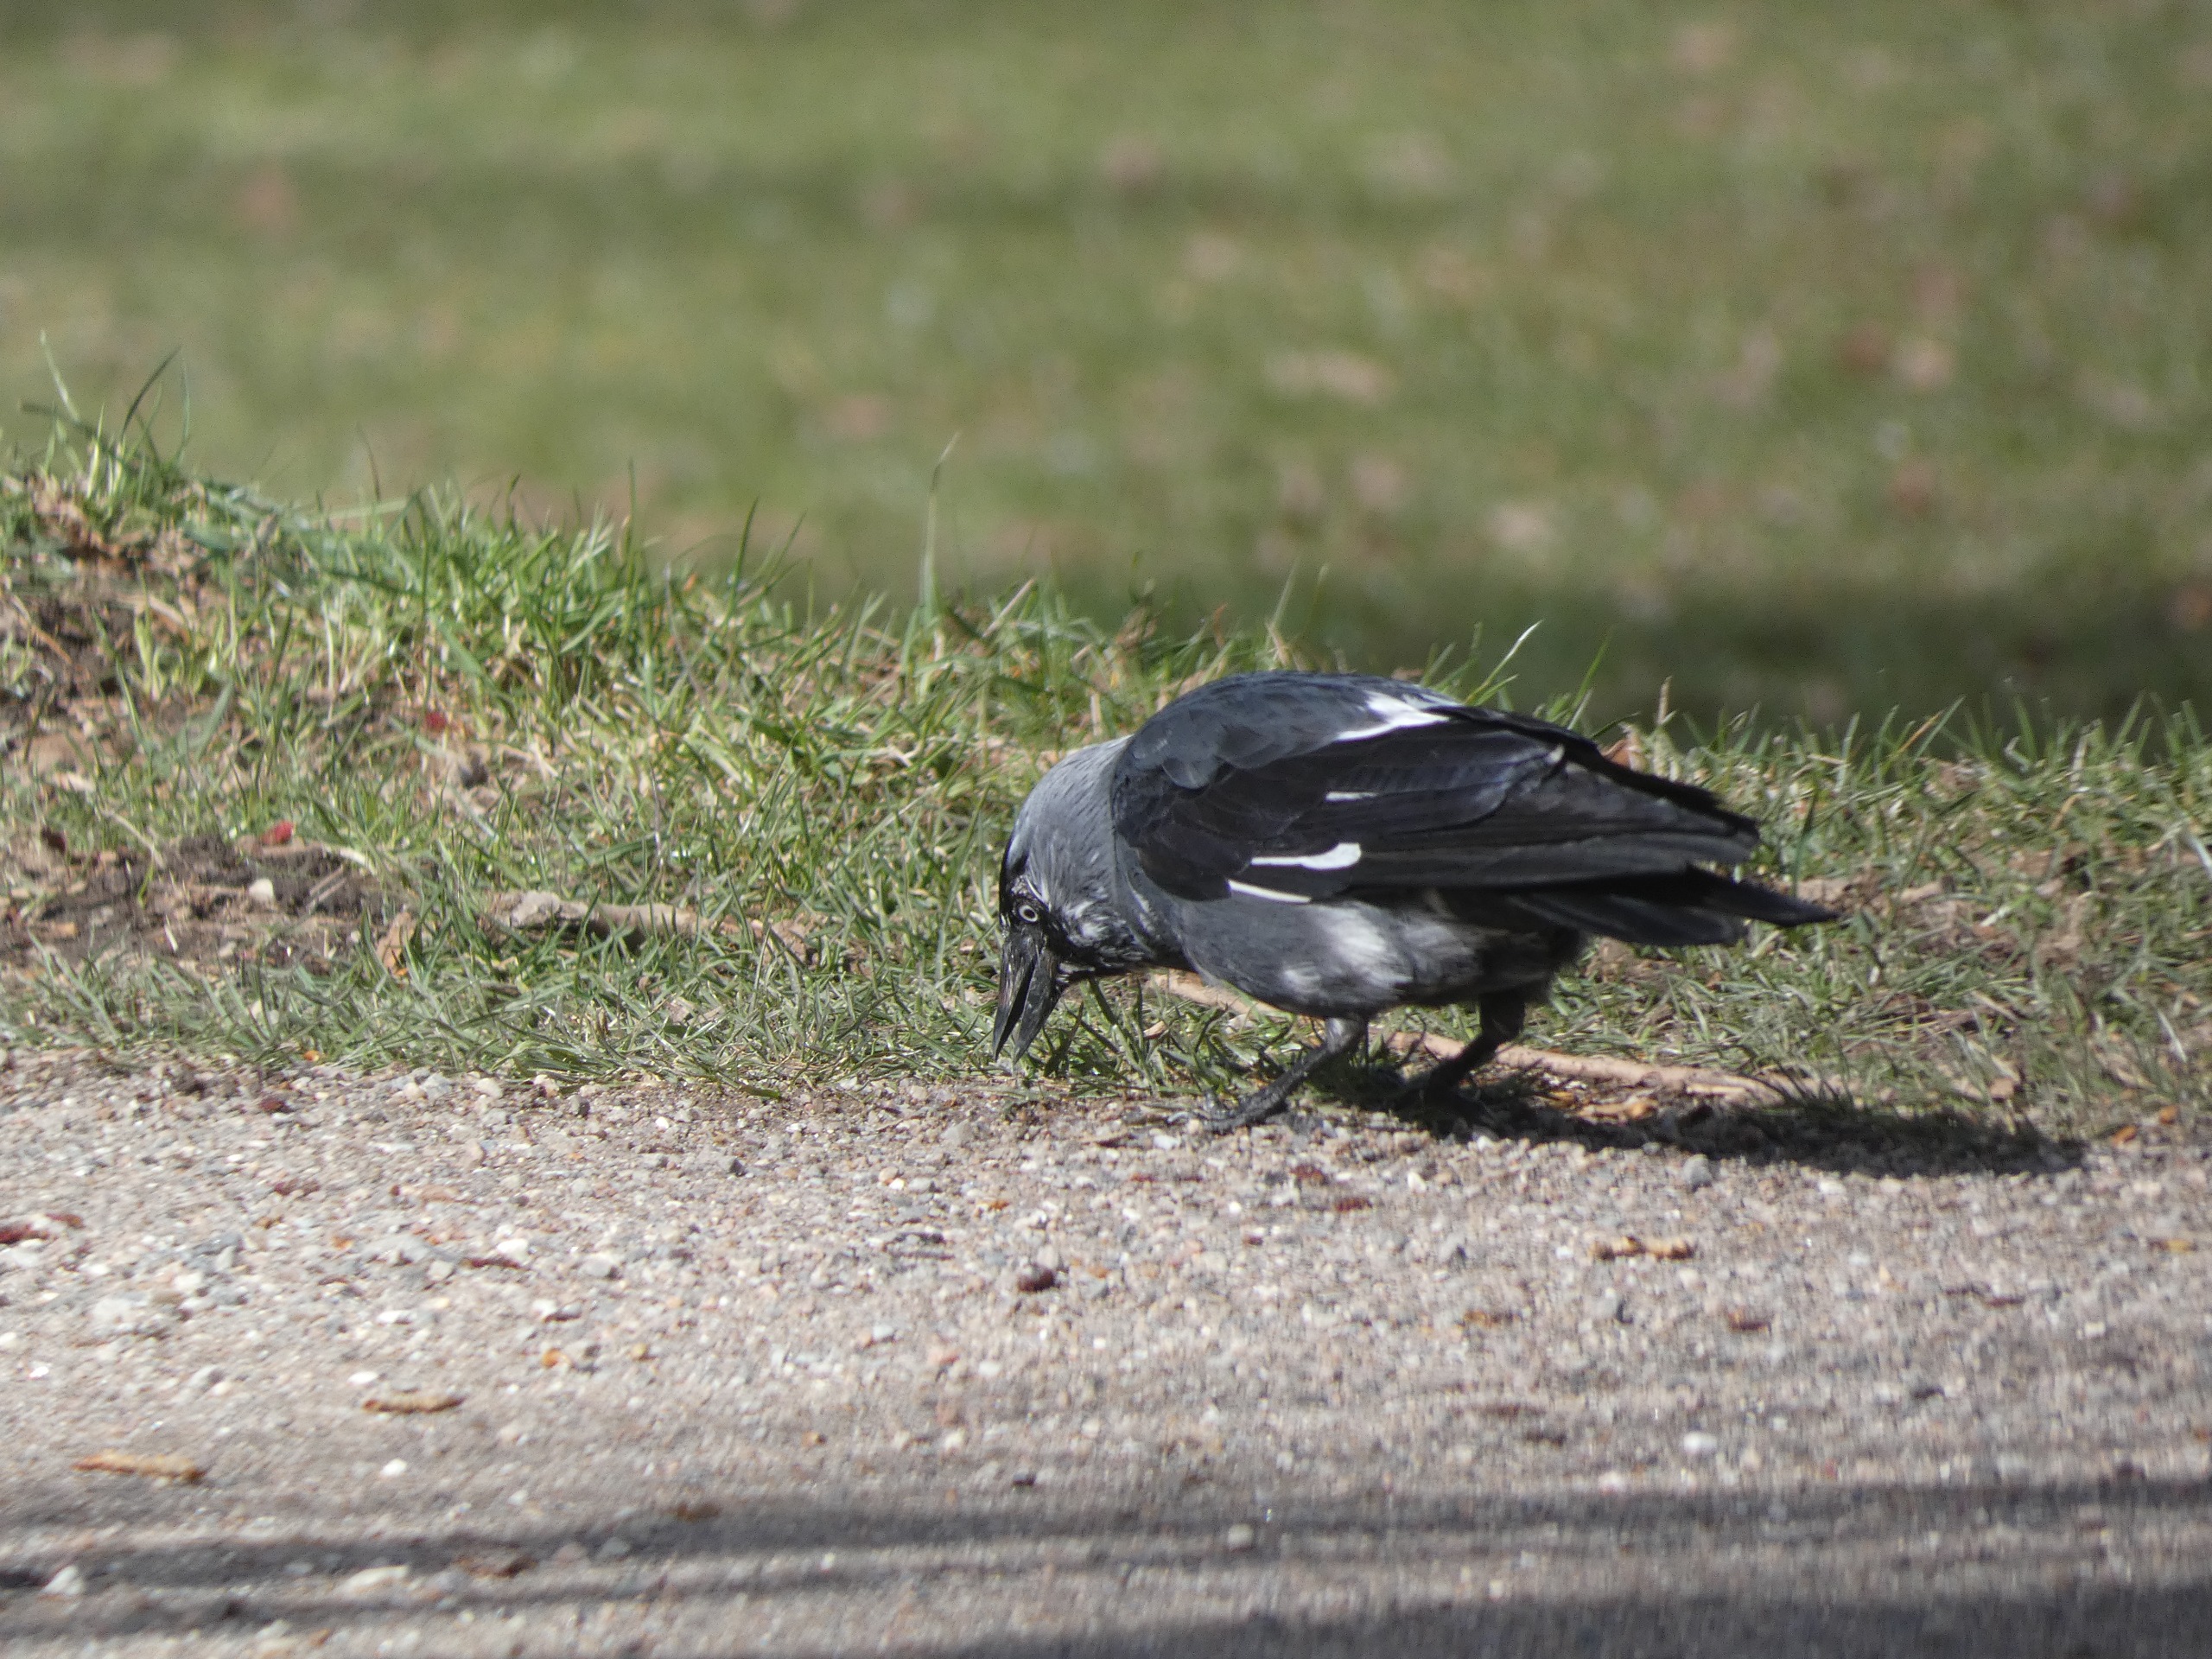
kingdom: Animalia
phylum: Chordata
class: Aves
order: Passeriformes
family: Corvidae
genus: Coloeus
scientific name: Coloeus monedula
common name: Allike
